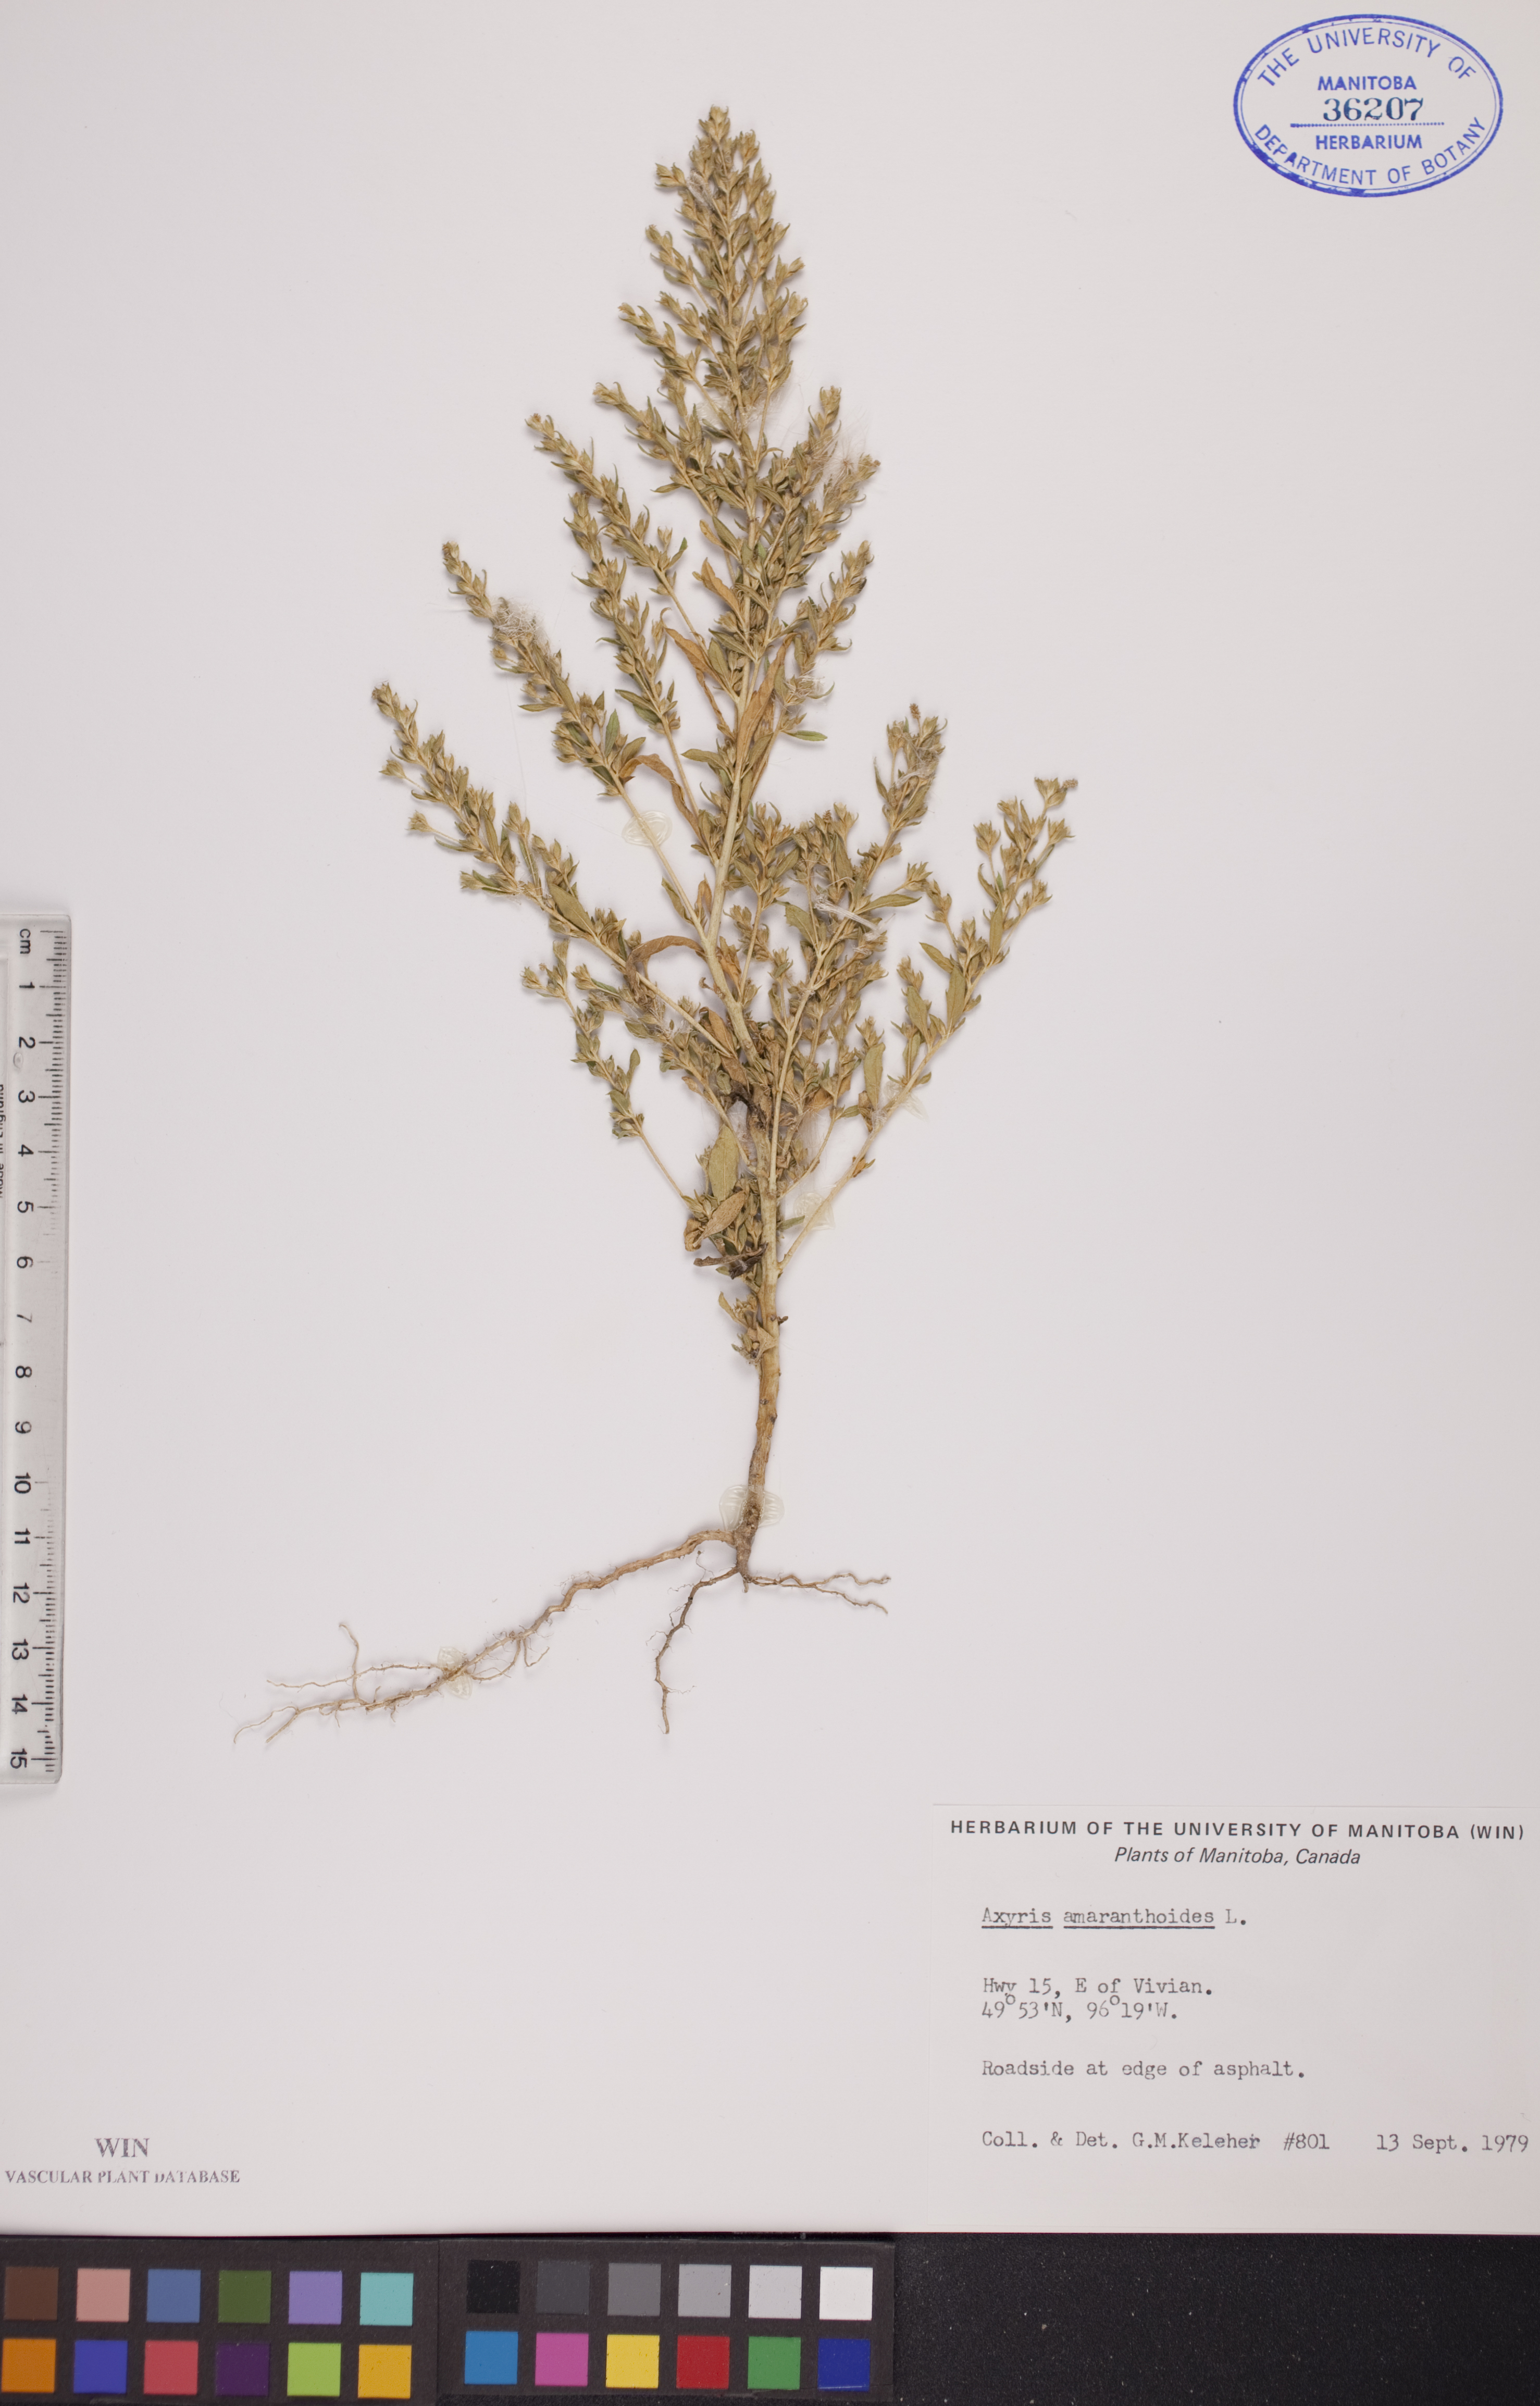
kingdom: Plantae
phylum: Tracheophyta
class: Magnoliopsida
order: Caryophyllales
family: Amaranthaceae
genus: Axyris
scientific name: Axyris amaranthoides
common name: Russian pigweed
